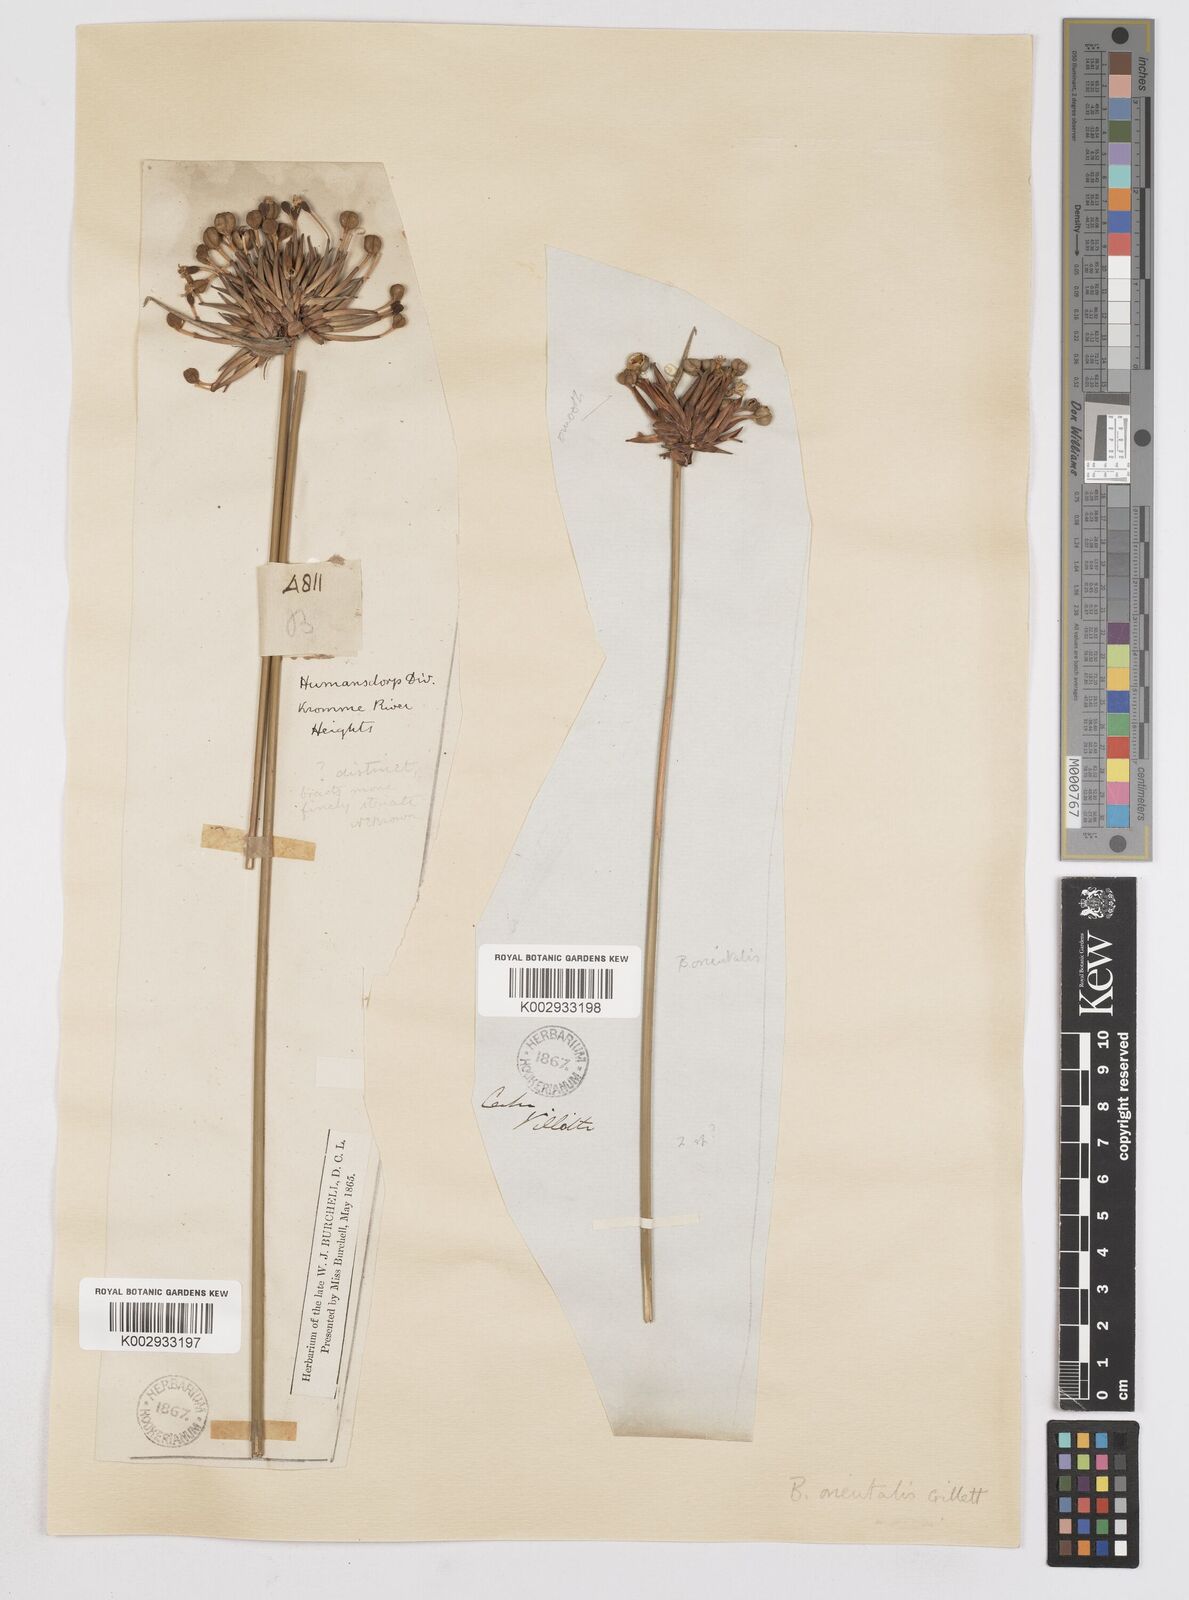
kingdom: Plantae
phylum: Tracheophyta
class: Liliopsida
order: Asparagales
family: Iridaceae
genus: Bobartia
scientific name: Bobartia orientalis
